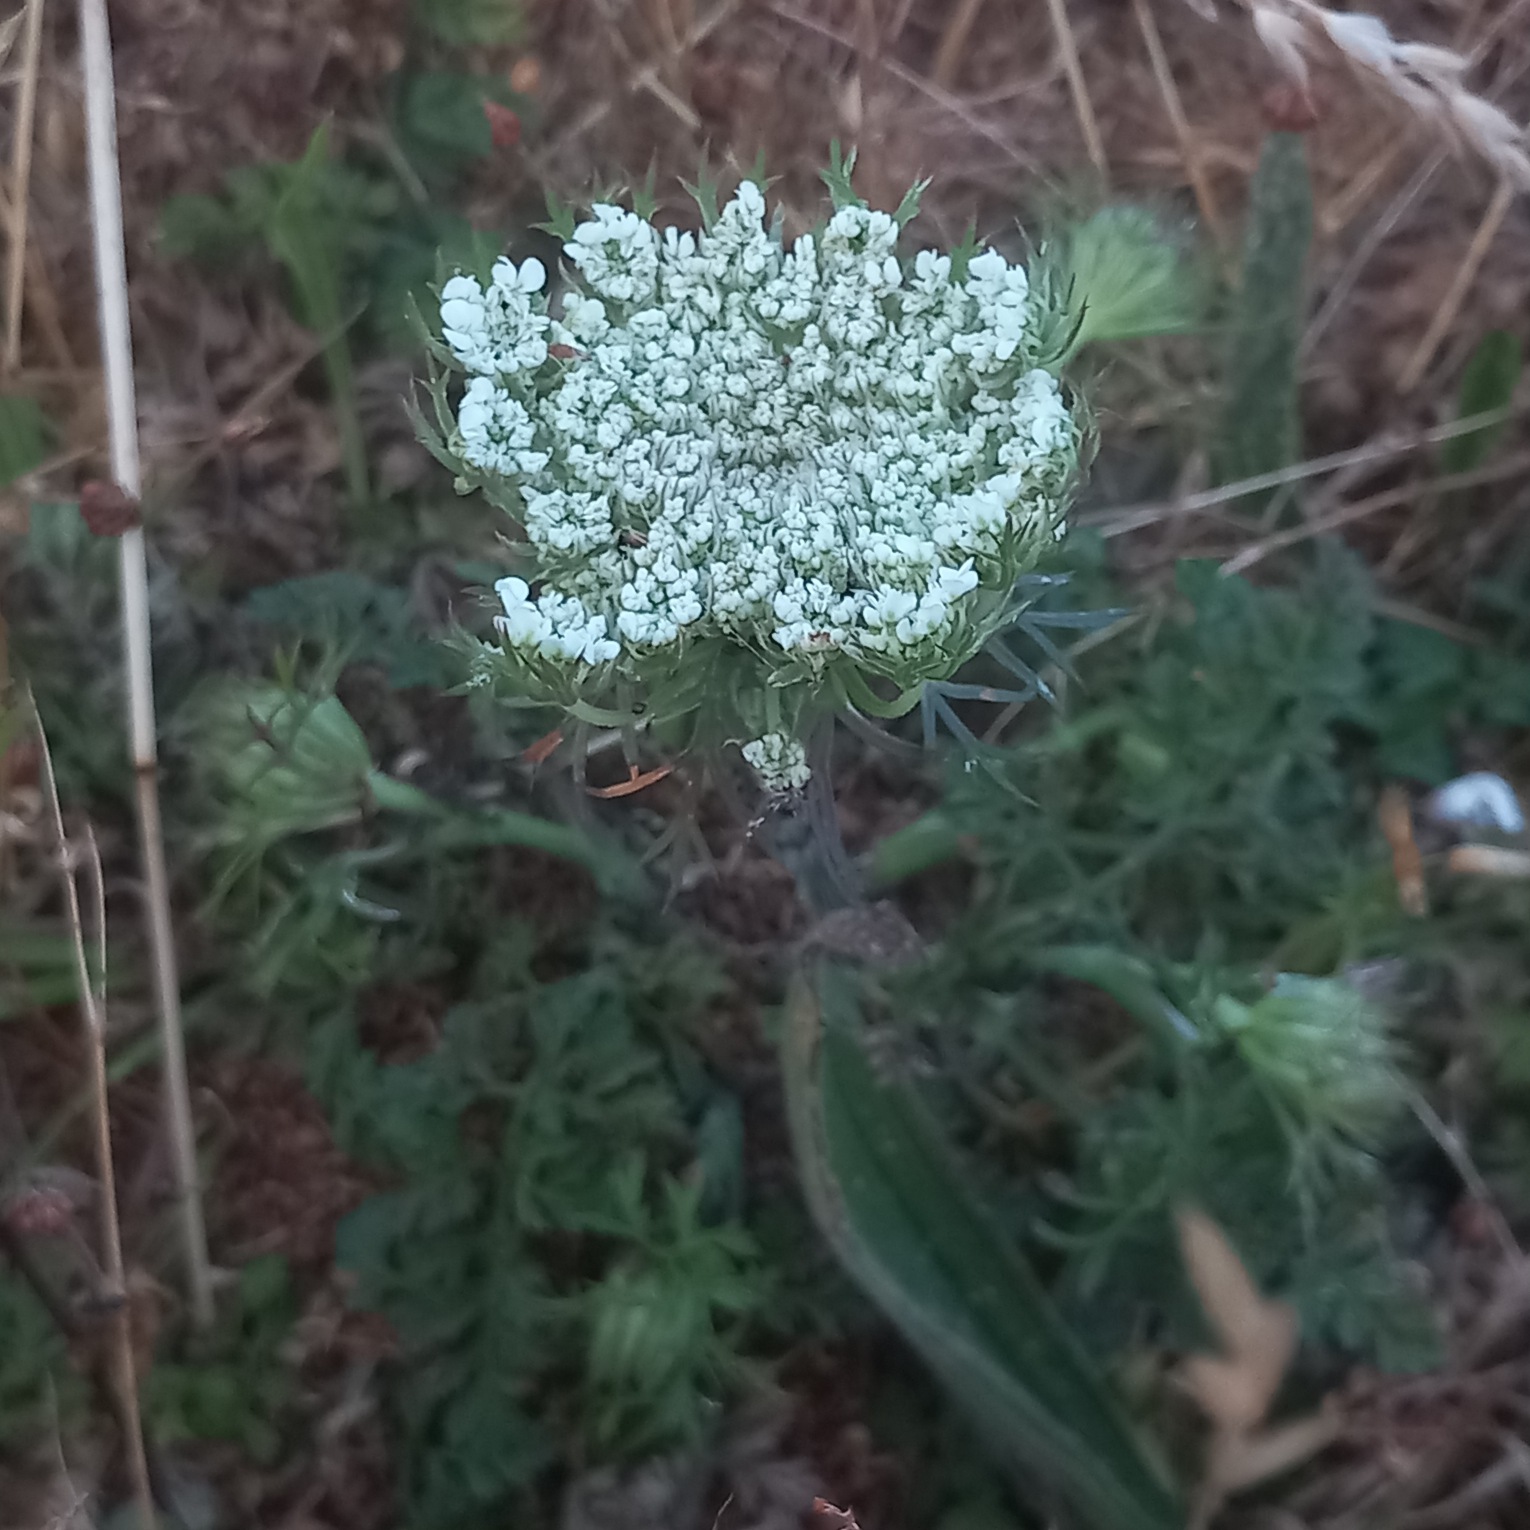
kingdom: Plantae
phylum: Tracheophyta
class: Magnoliopsida
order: Apiales
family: Apiaceae
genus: Daucus
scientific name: Daucus carota
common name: Vild gulerod
